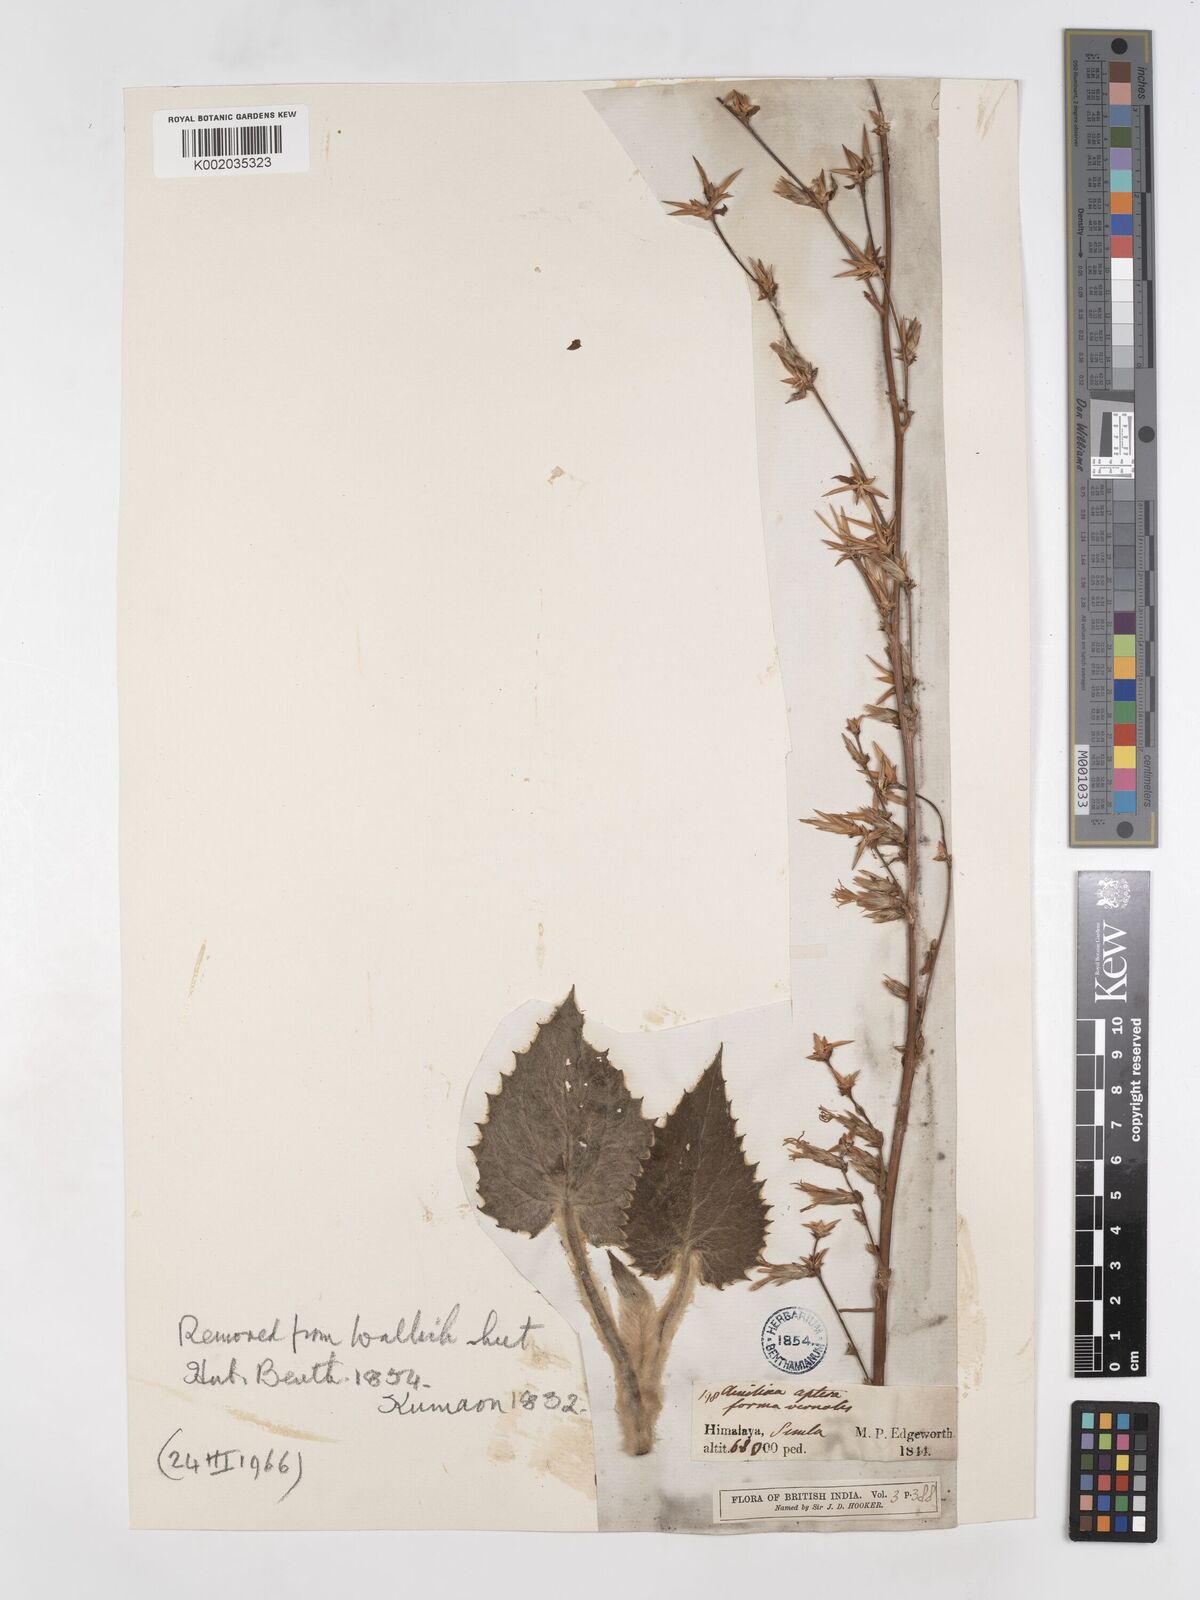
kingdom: Plantae
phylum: Tracheophyta
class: Magnoliopsida
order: Asterales
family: Asteraceae
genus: Ainsliaea
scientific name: Ainsliaea aptera
